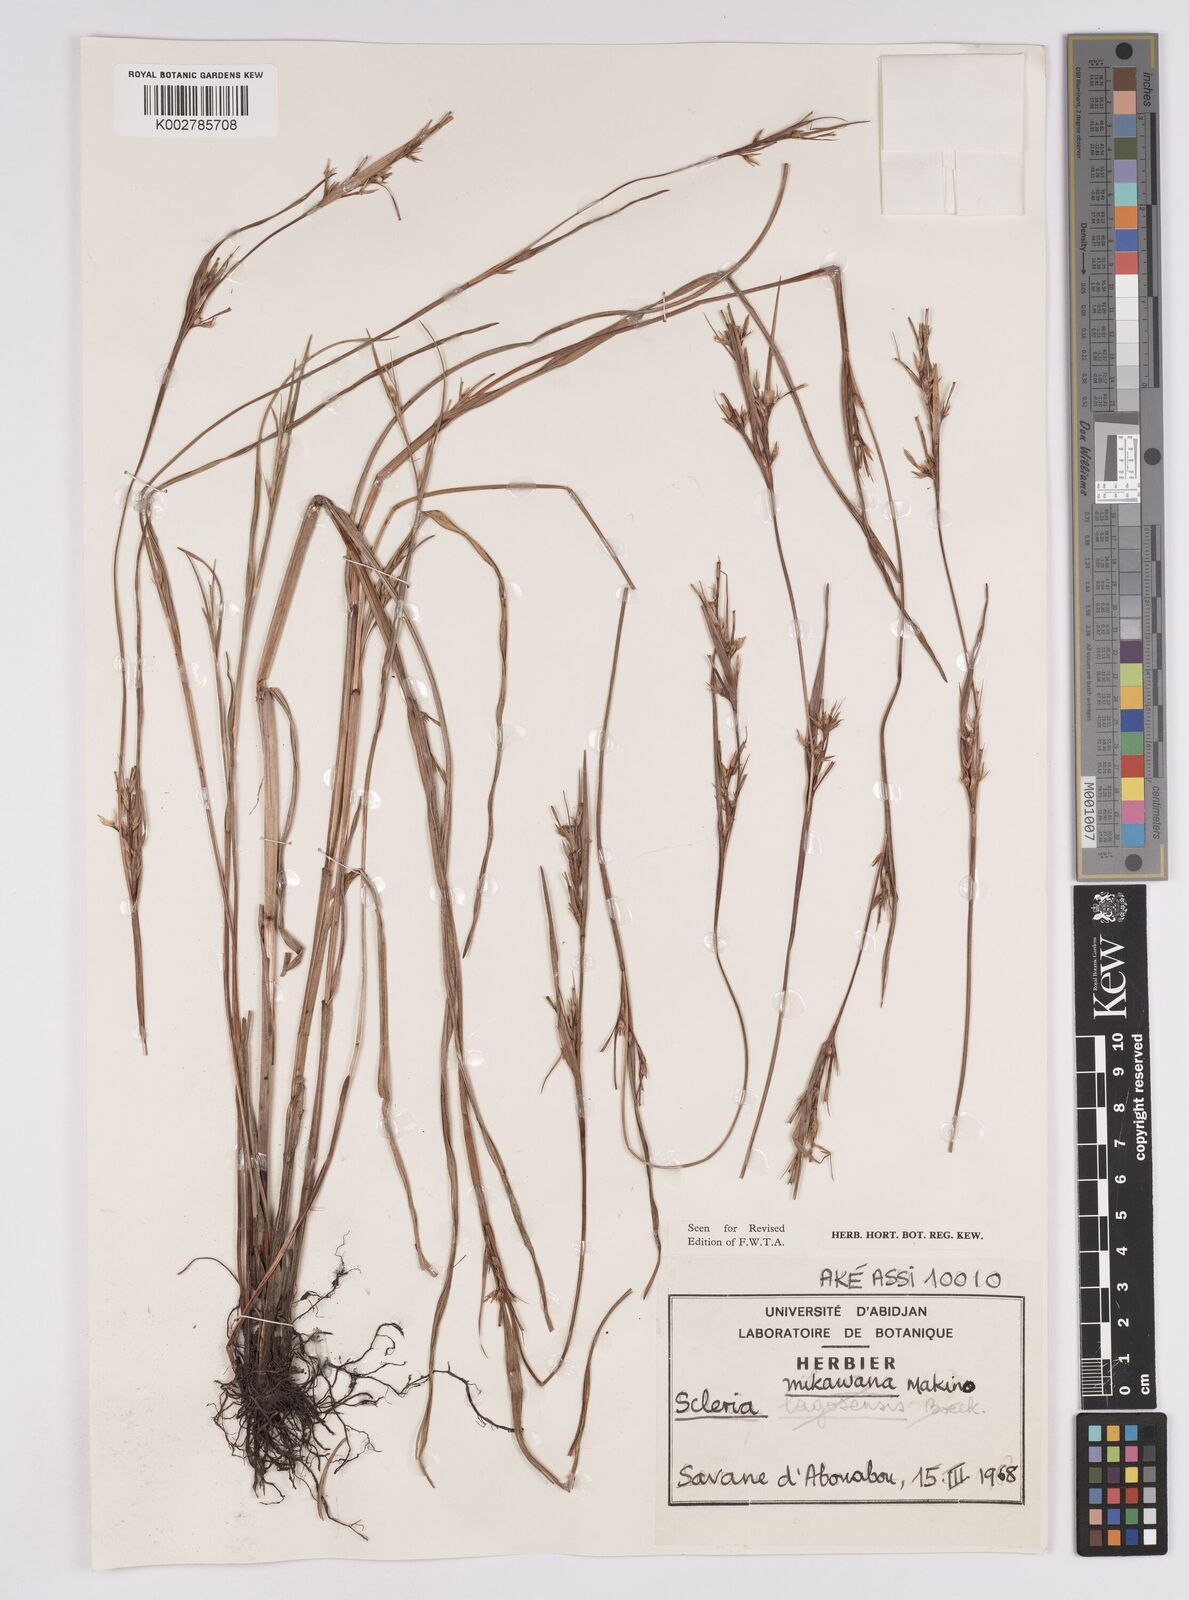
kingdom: Plantae
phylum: Tracheophyta
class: Liliopsida
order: Poales
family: Cyperaceae
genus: Scleria
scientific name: Scleria mikawana
